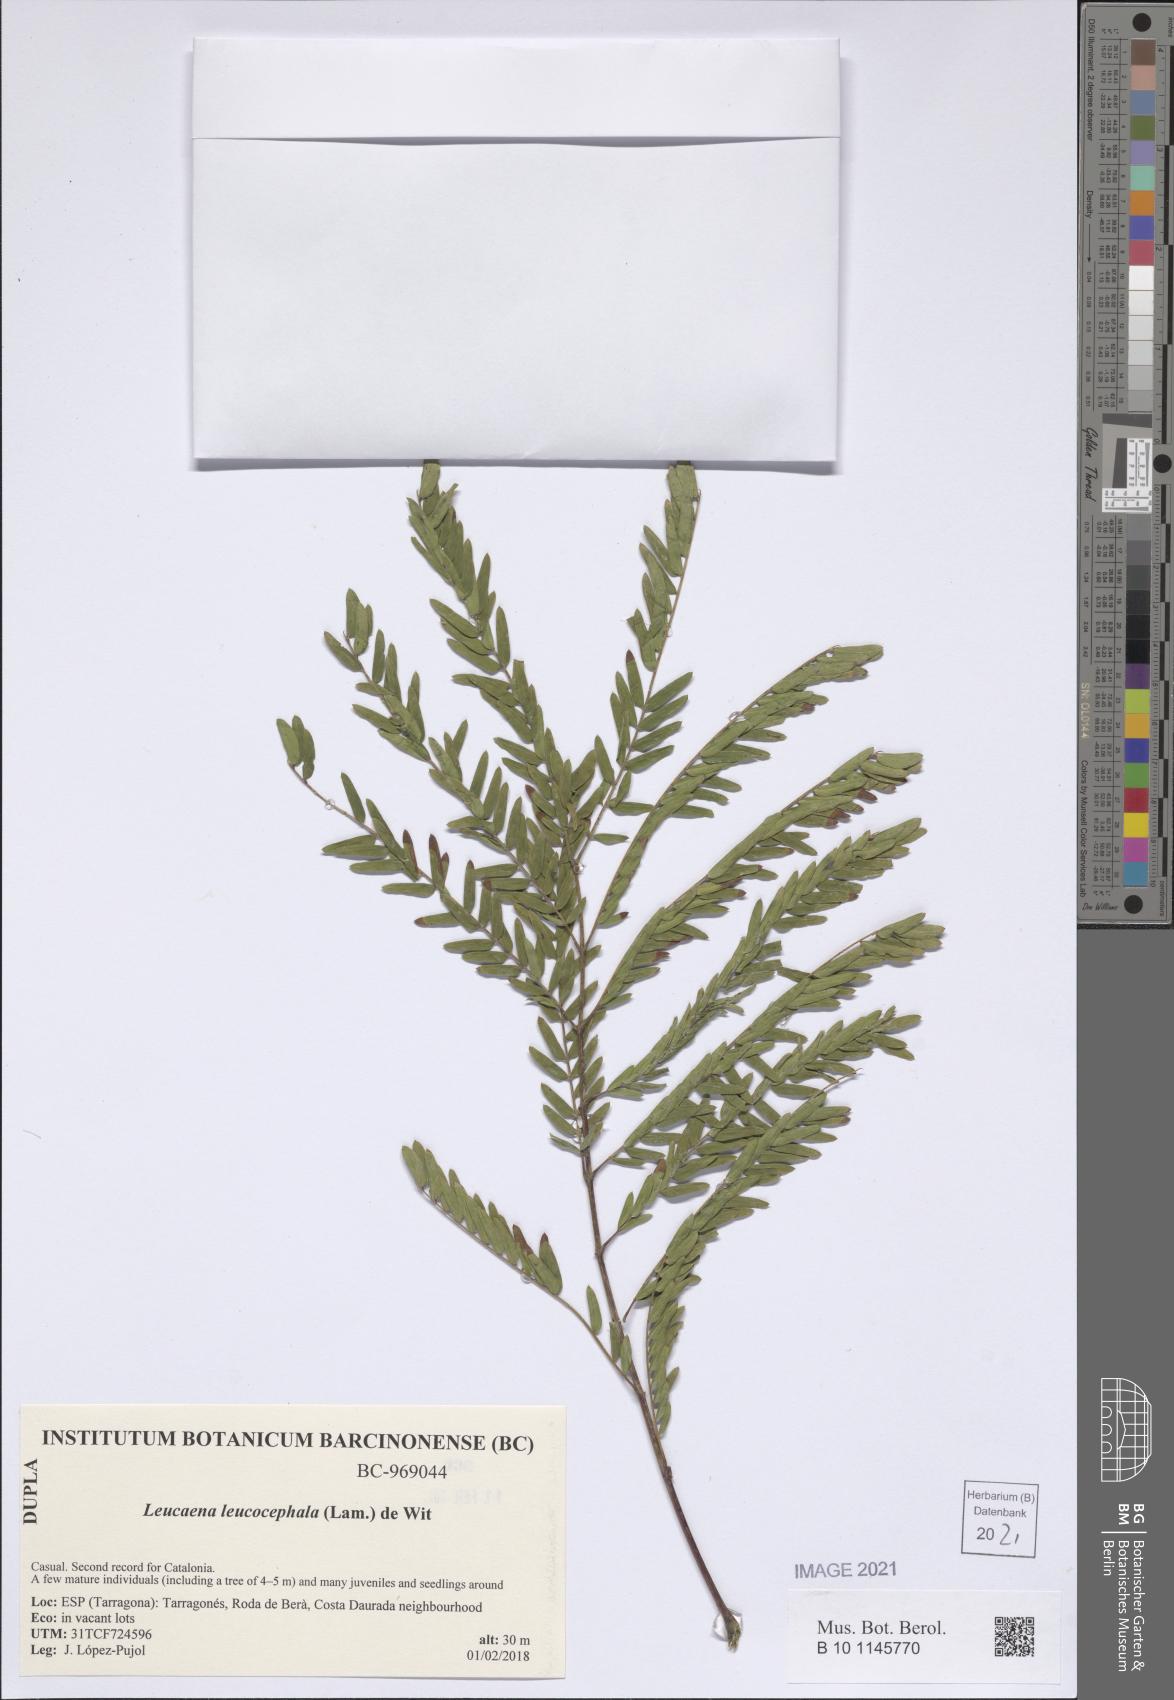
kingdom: Plantae
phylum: Tracheophyta
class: Magnoliopsida
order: Fabales
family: Fabaceae
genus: Leucaena
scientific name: Leucaena leucocephala
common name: White leadtree
